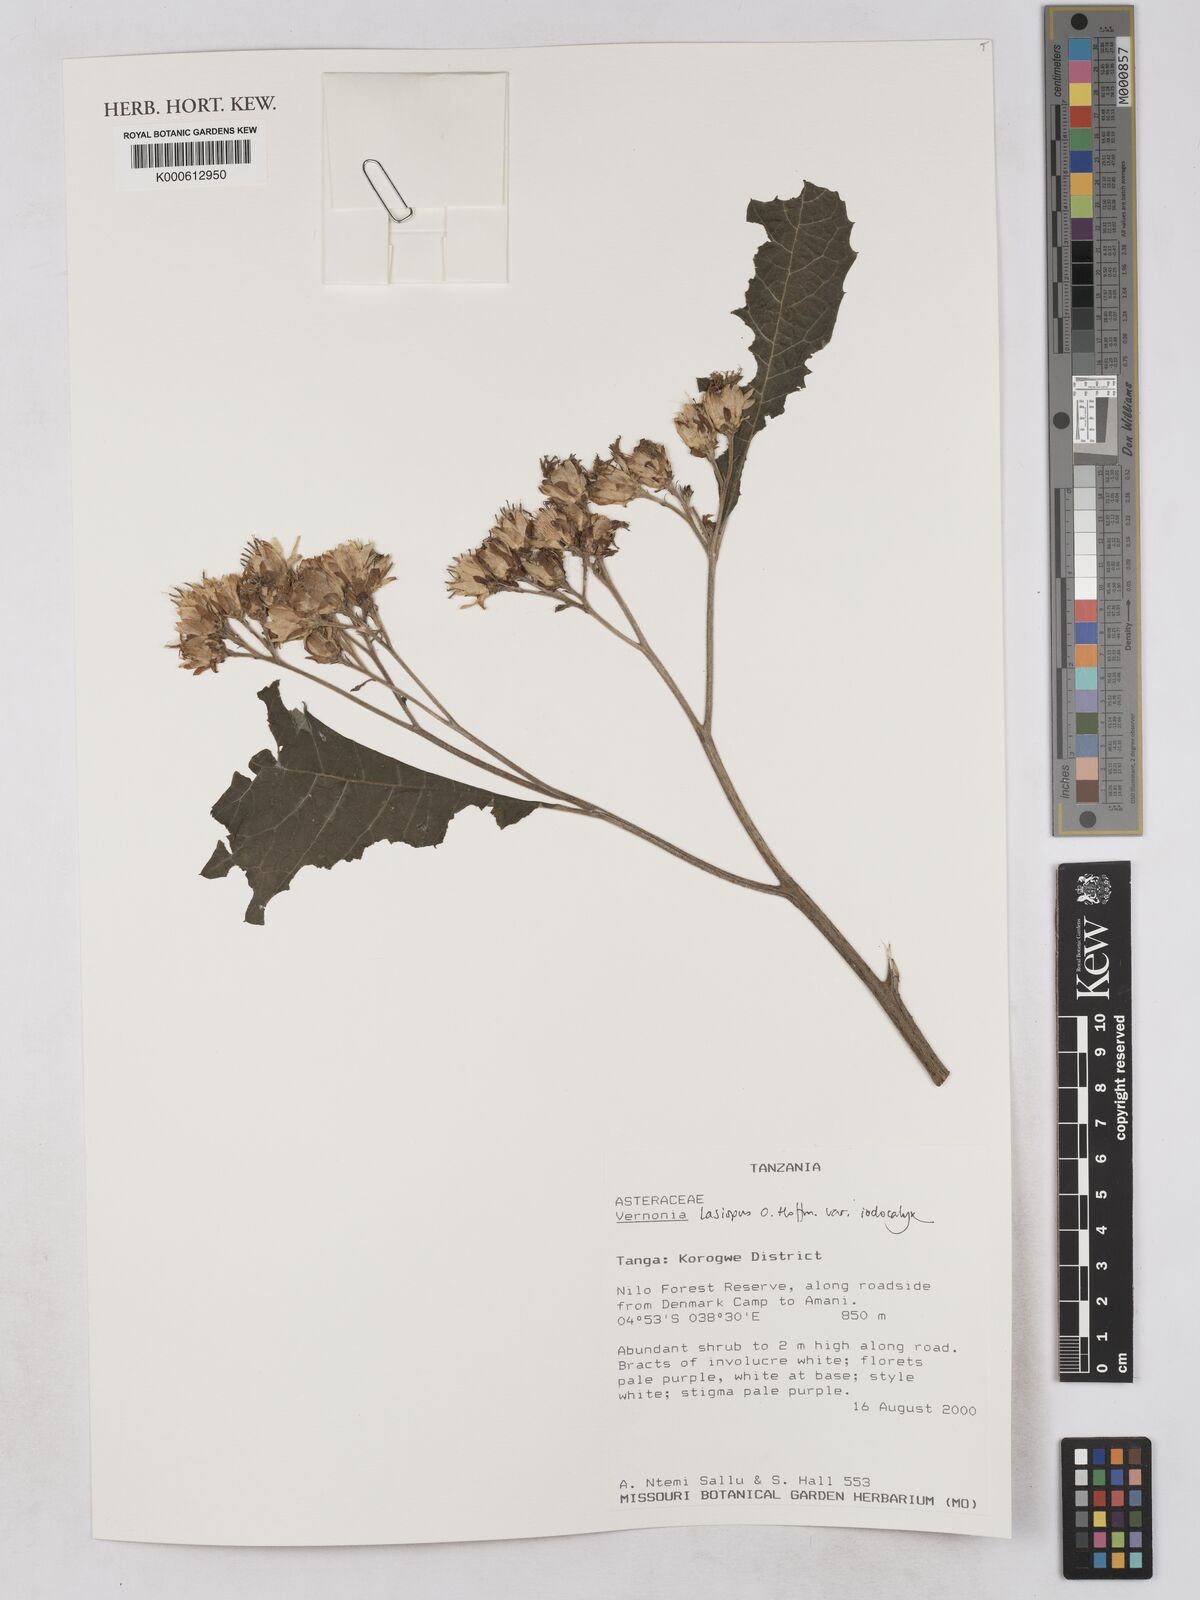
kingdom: Plantae
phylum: Tracheophyta
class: Magnoliopsida
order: Asterales
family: Asteraceae
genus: Baccharoides
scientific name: Baccharoides lasiopus
